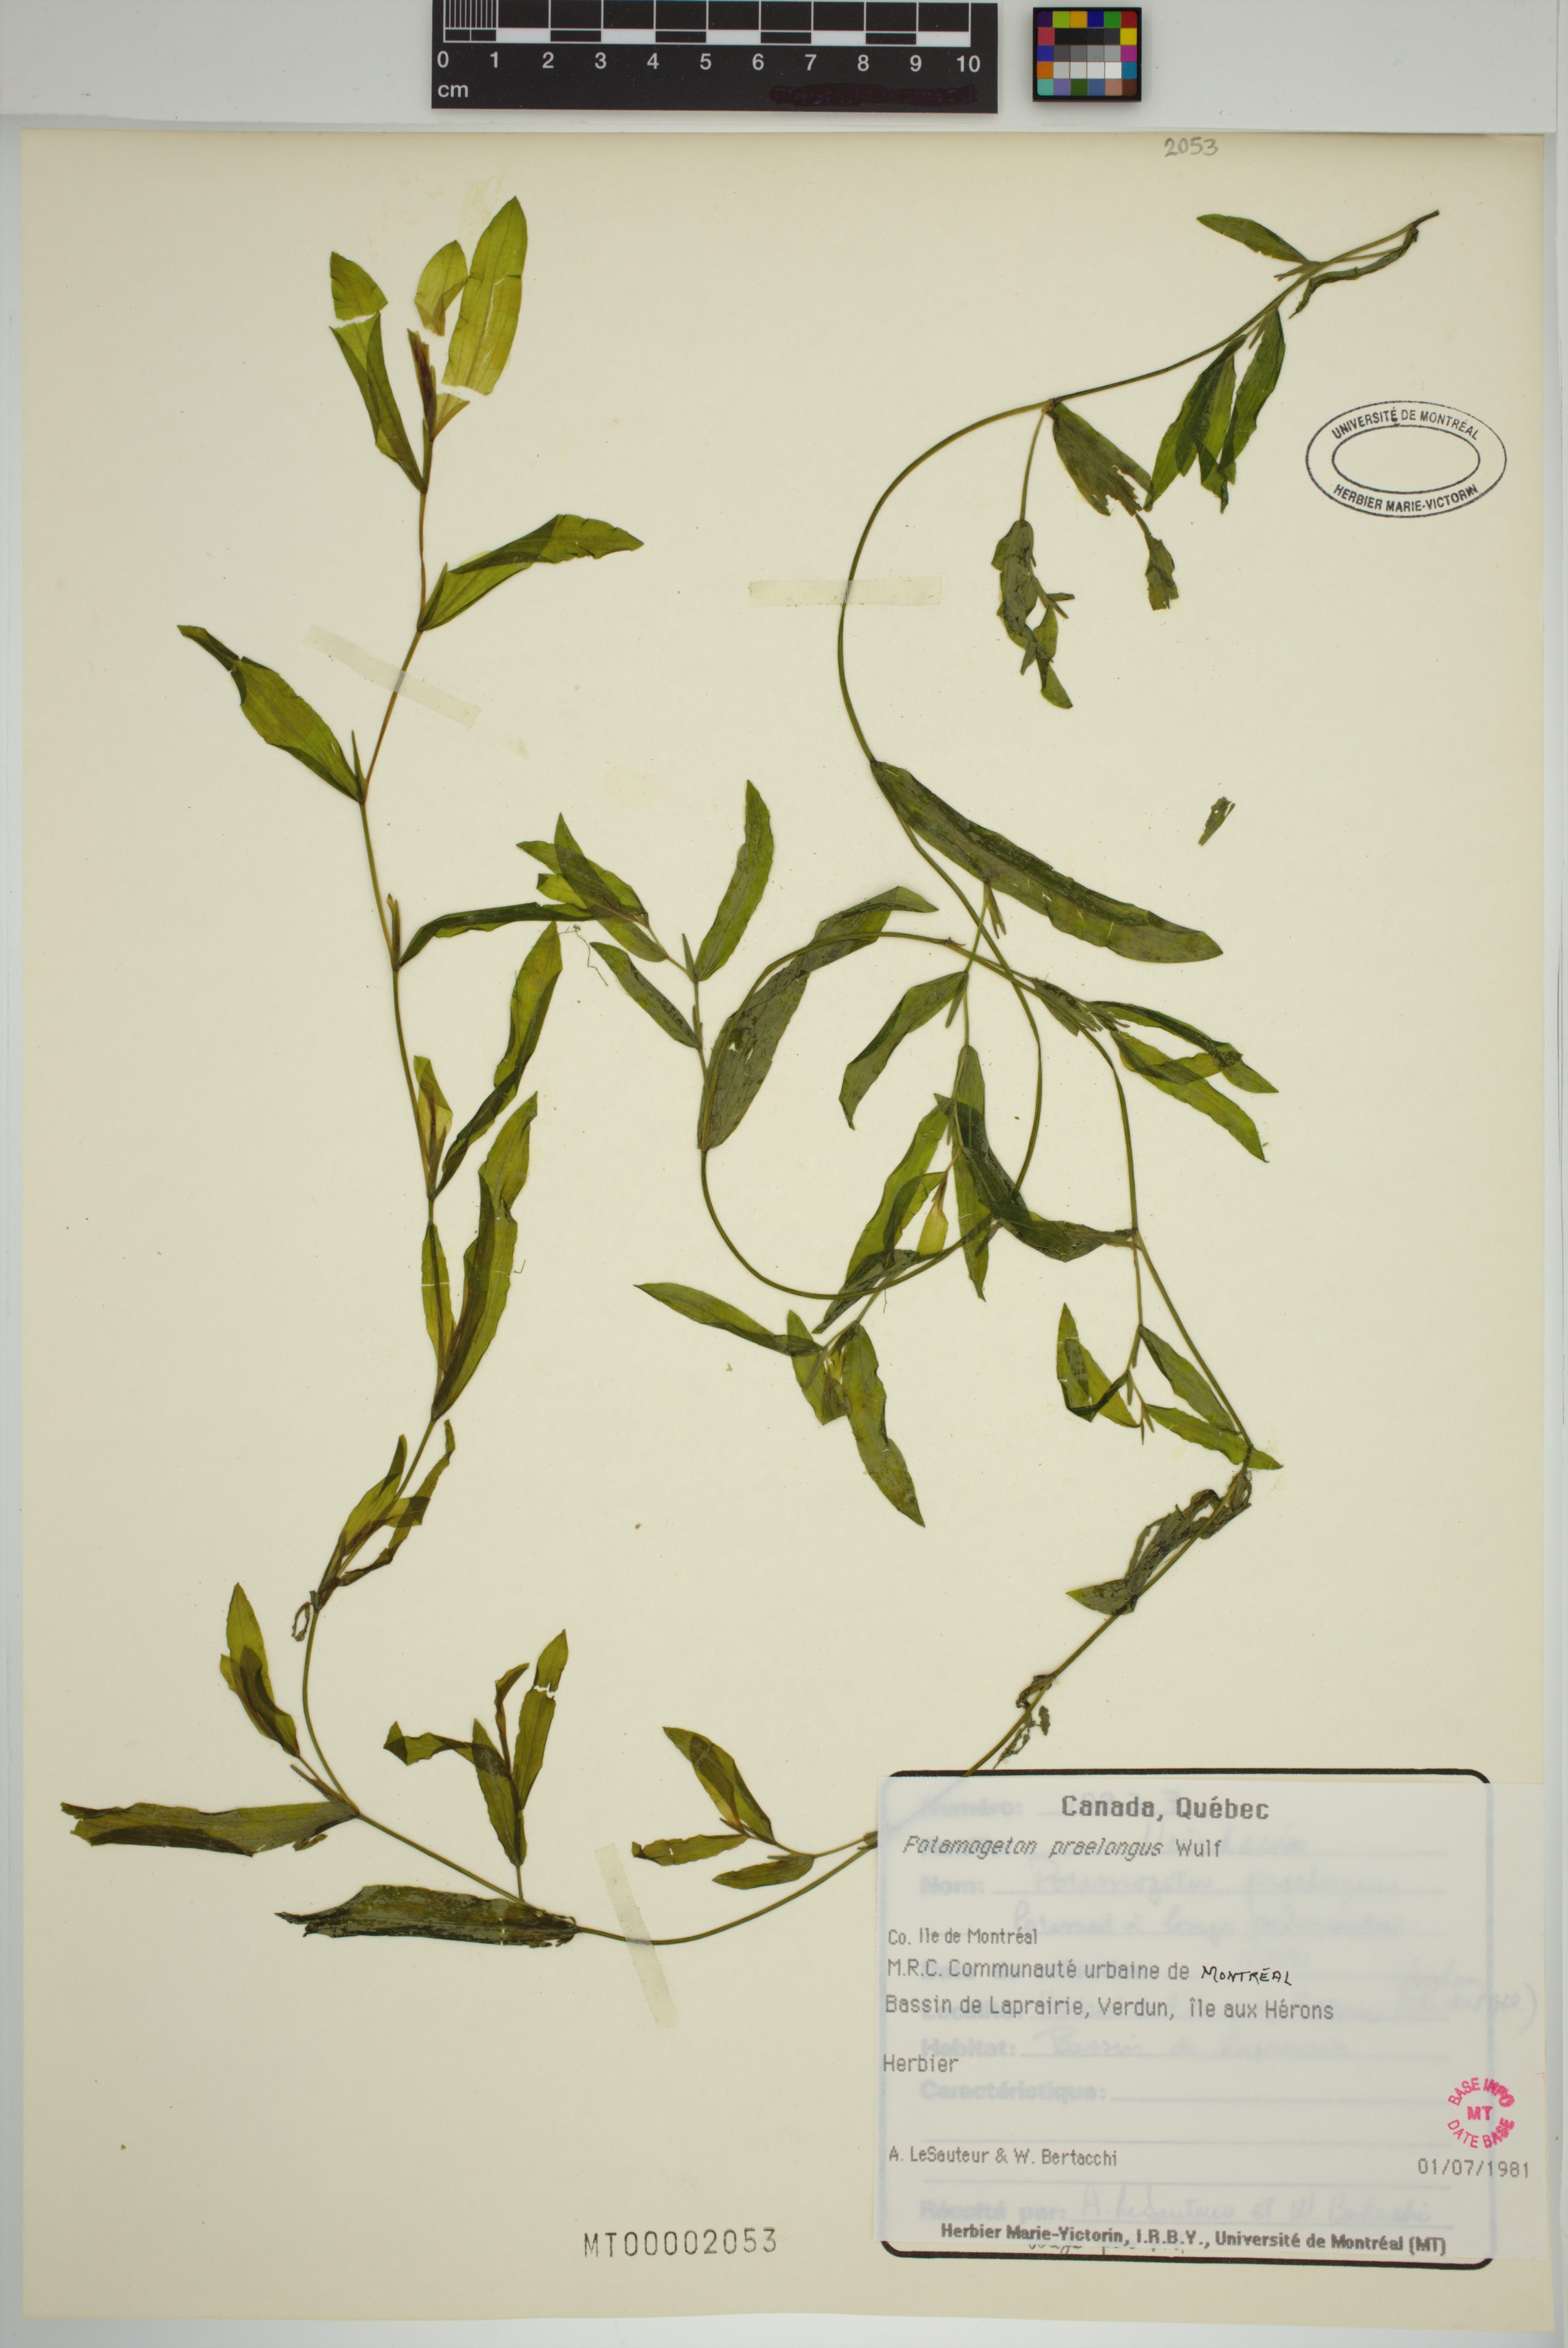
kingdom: Plantae
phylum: Tracheophyta
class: Liliopsida
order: Alismatales
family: Potamogetonaceae
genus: Potamogeton
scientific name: Potamogeton praelongus
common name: Long-stalked pondweed
